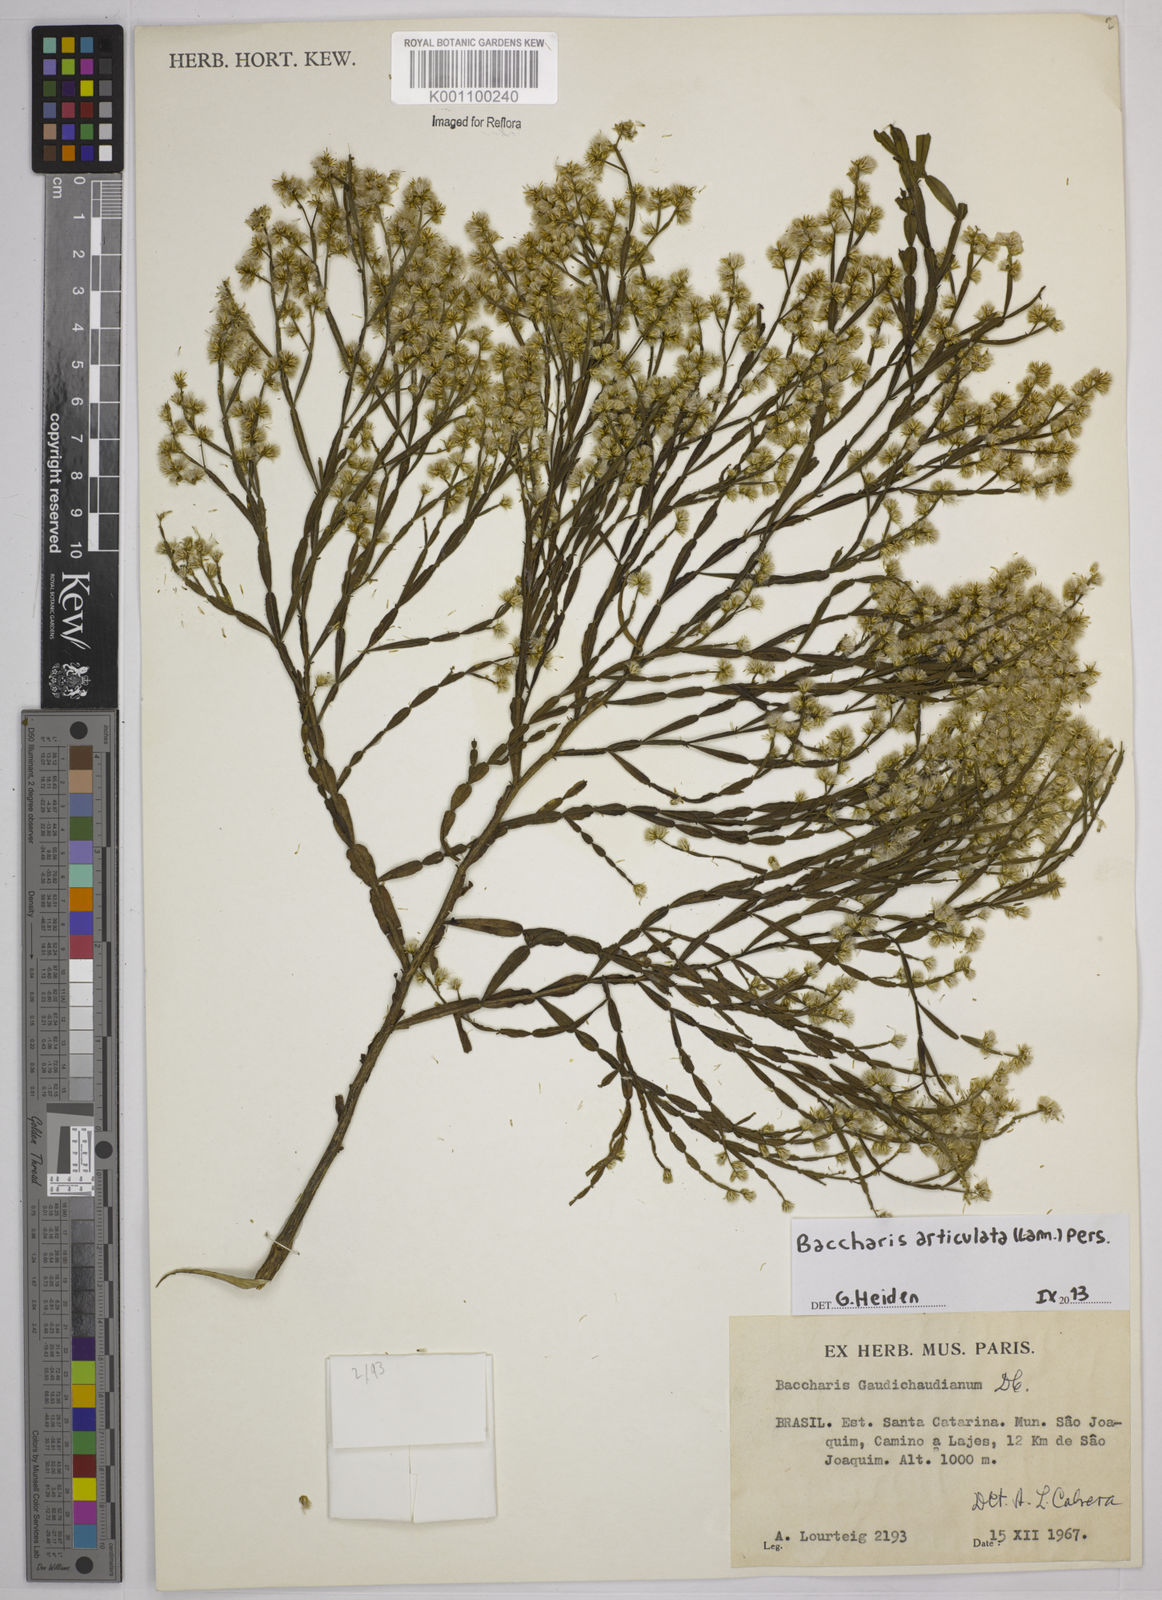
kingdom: Plantae
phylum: Tracheophyta
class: Magnoliopsida
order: Asterales
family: Asteraceae
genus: Baccharis
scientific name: Baccharis
